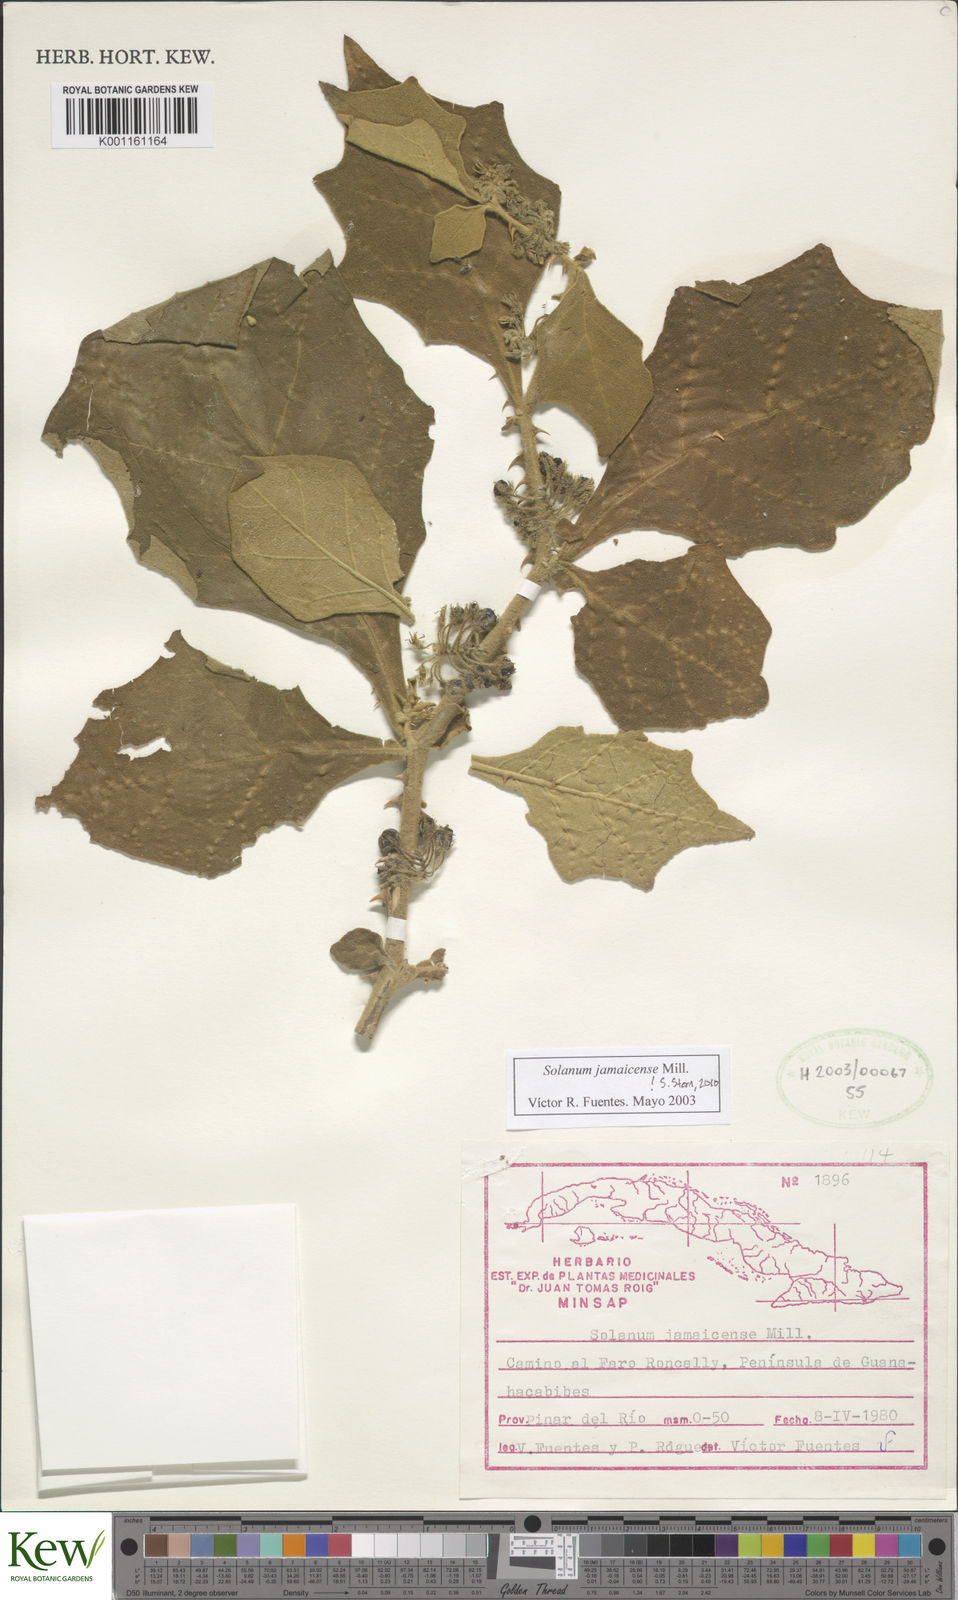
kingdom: Plantae
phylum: Tracheophyta
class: Magnoliopsida
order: Solanales
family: Solanaceae
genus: Solanum
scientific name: Solanum jamaicense
